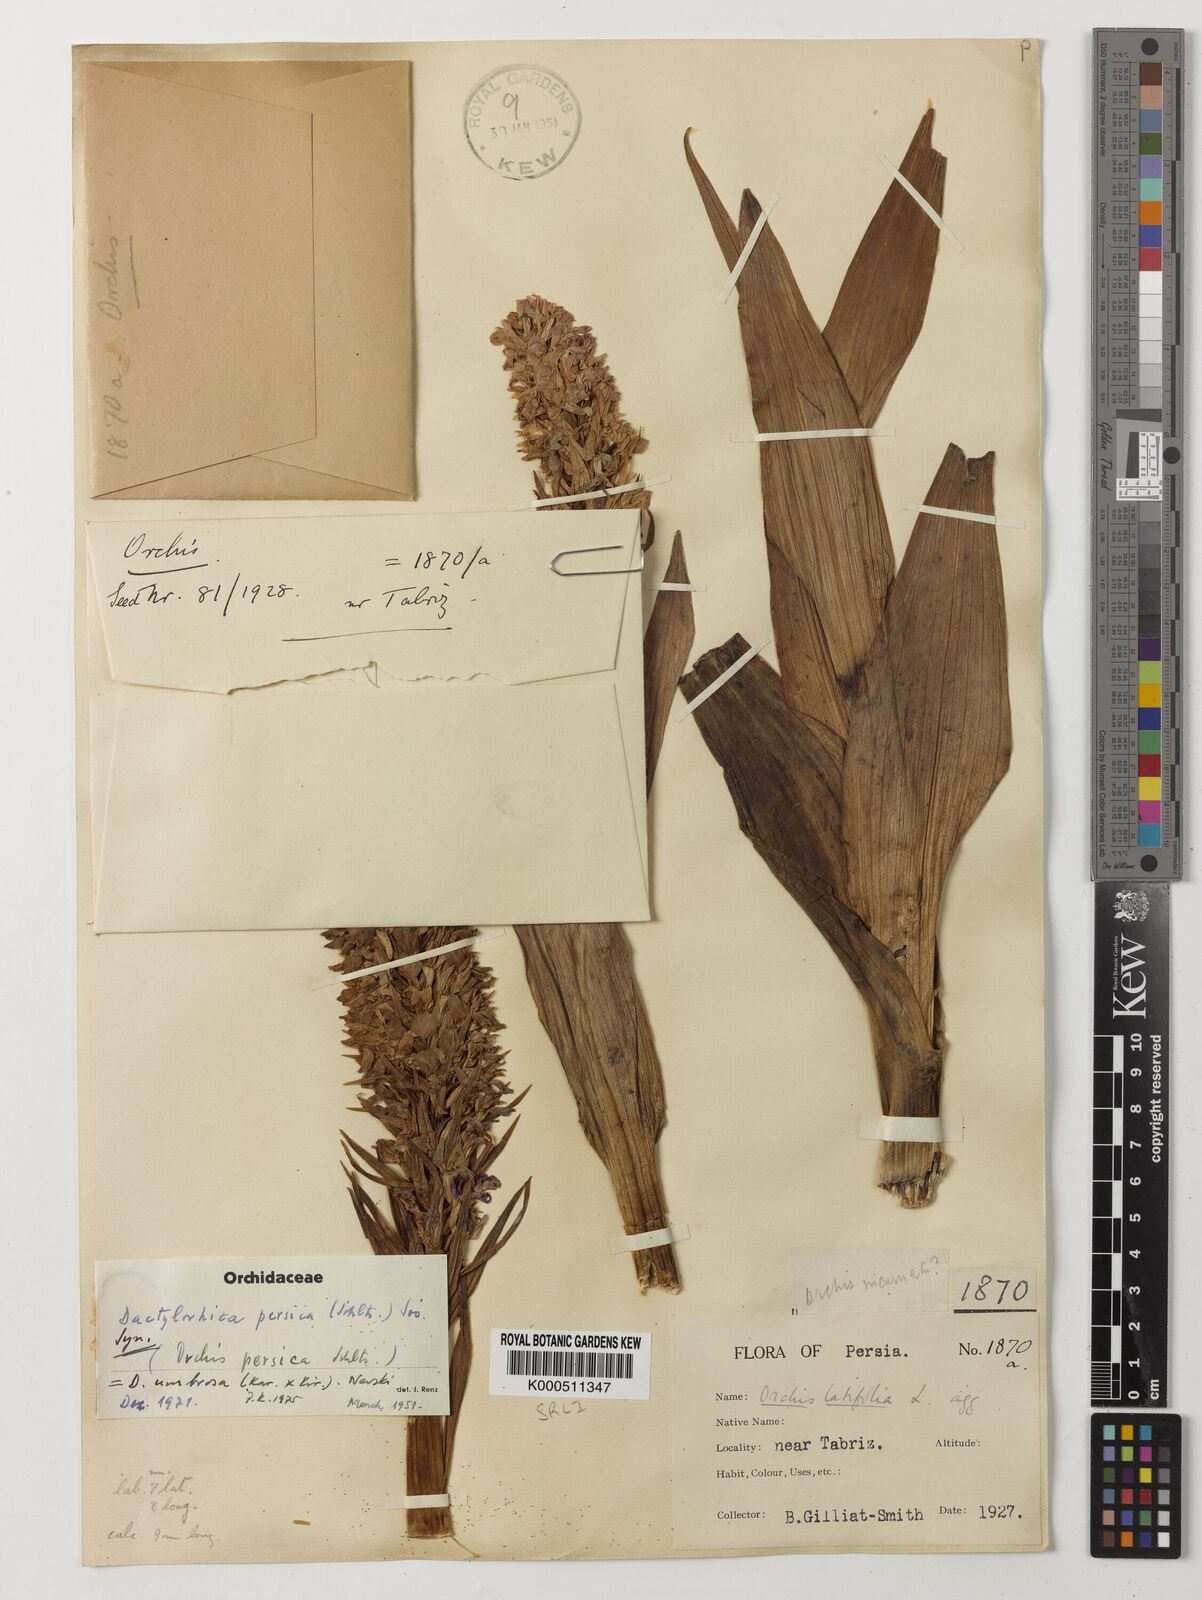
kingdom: Plantae
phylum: Tracheophyta
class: Liliopsida
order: Asparagales
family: Orchidaceae
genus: Dactylorhiza
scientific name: Dactylorhiza
